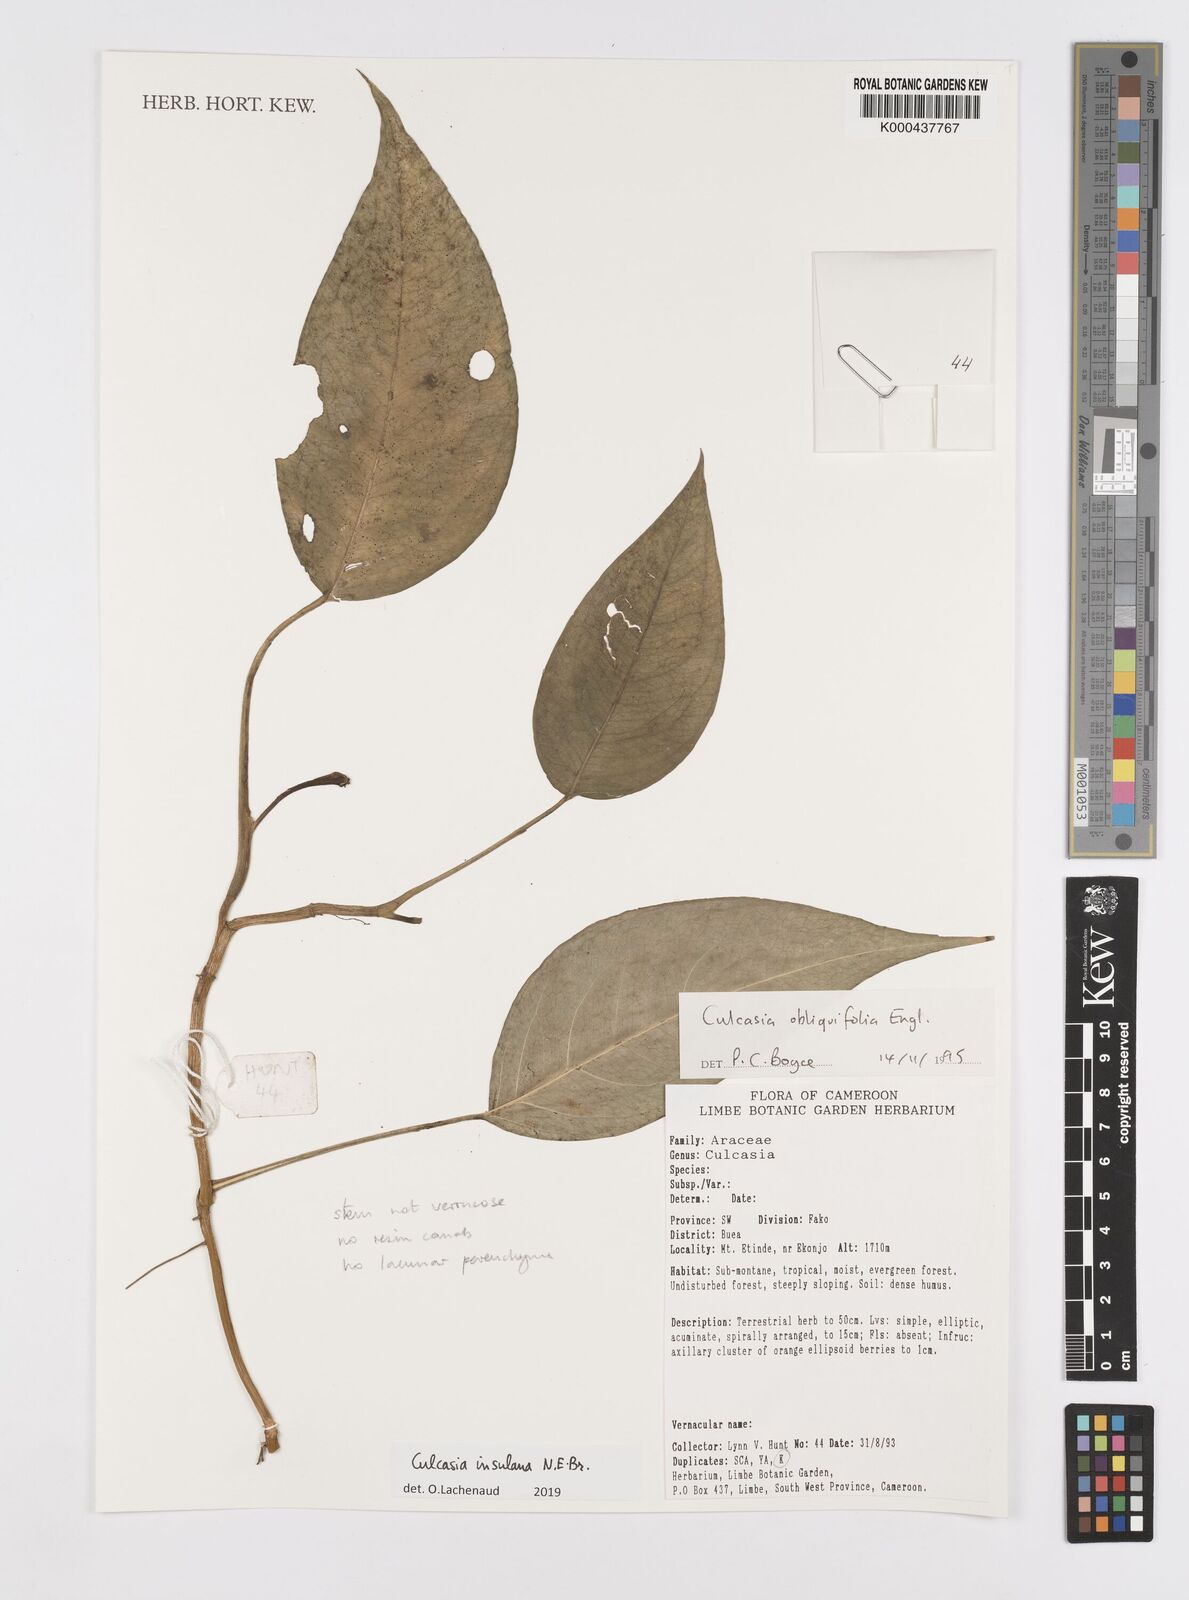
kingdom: Plantae
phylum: Tracheophyta
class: Liliopsida
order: Alismatales
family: Araceae
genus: Culcasia
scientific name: Culcasia insulana
